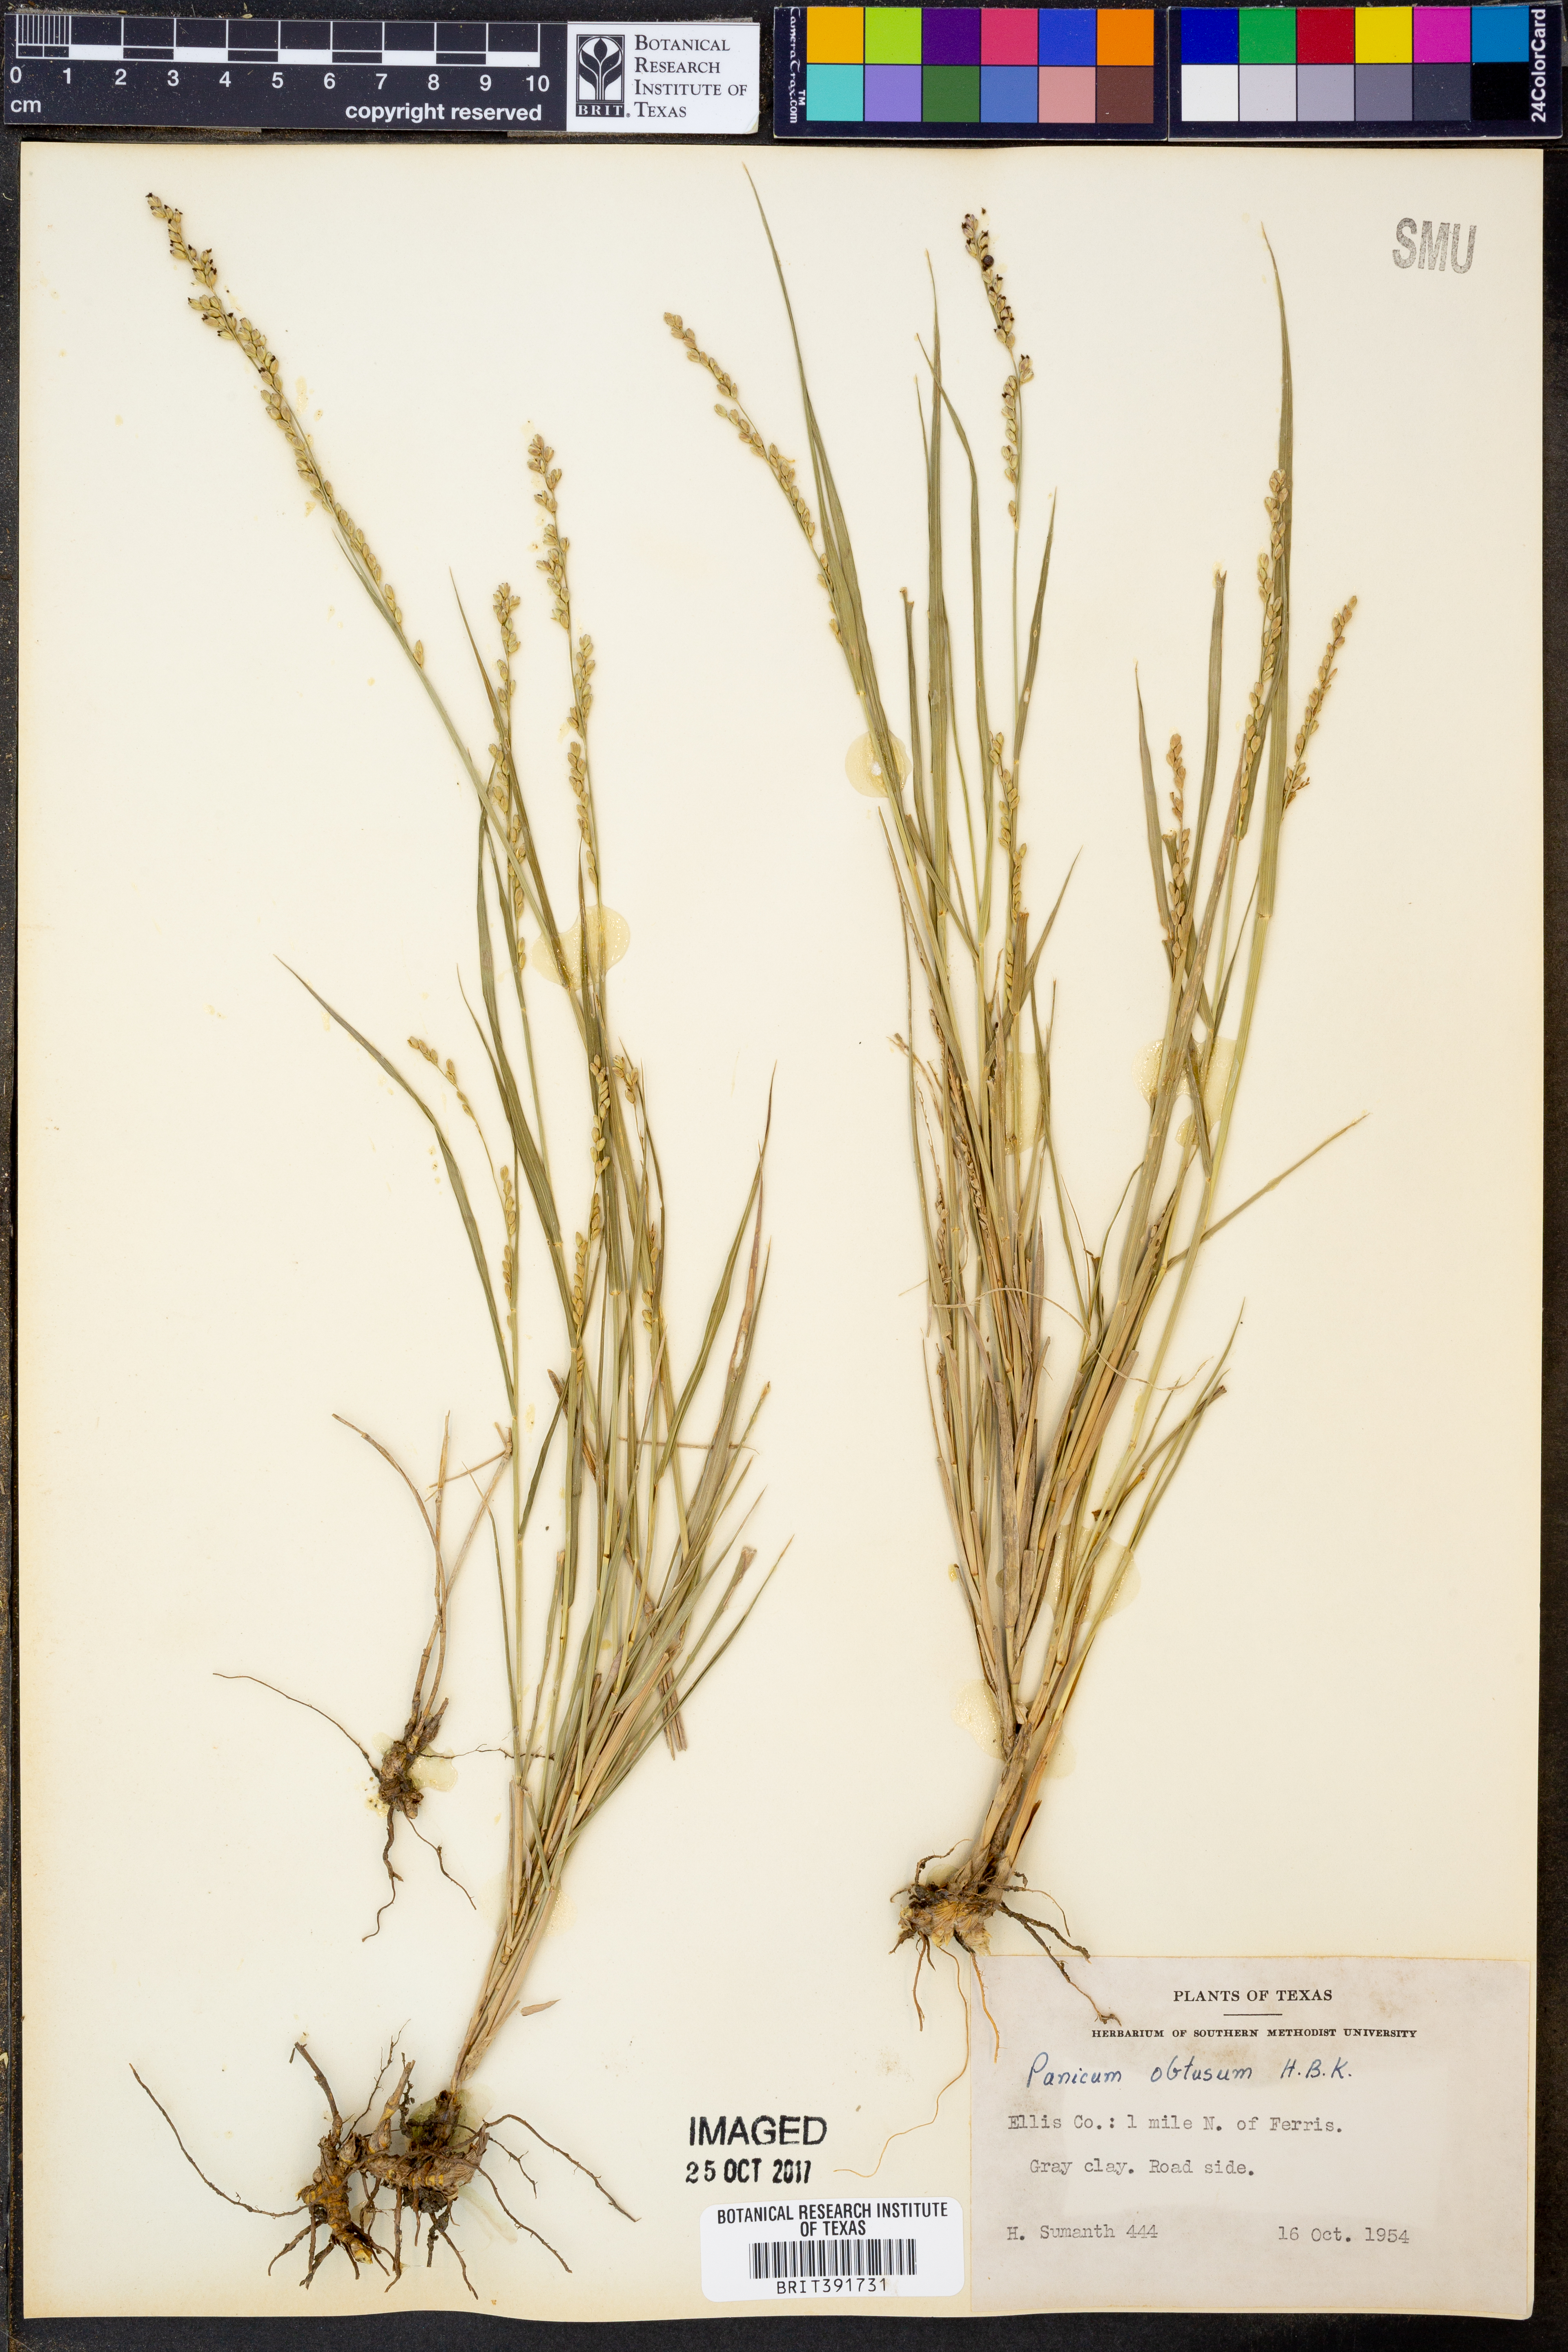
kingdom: Plantae
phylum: Tracheophyta
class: Liliopsida
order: Poales
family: Poaceae
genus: Hopia
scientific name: Hopia obtusa
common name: Vine-mesquite
